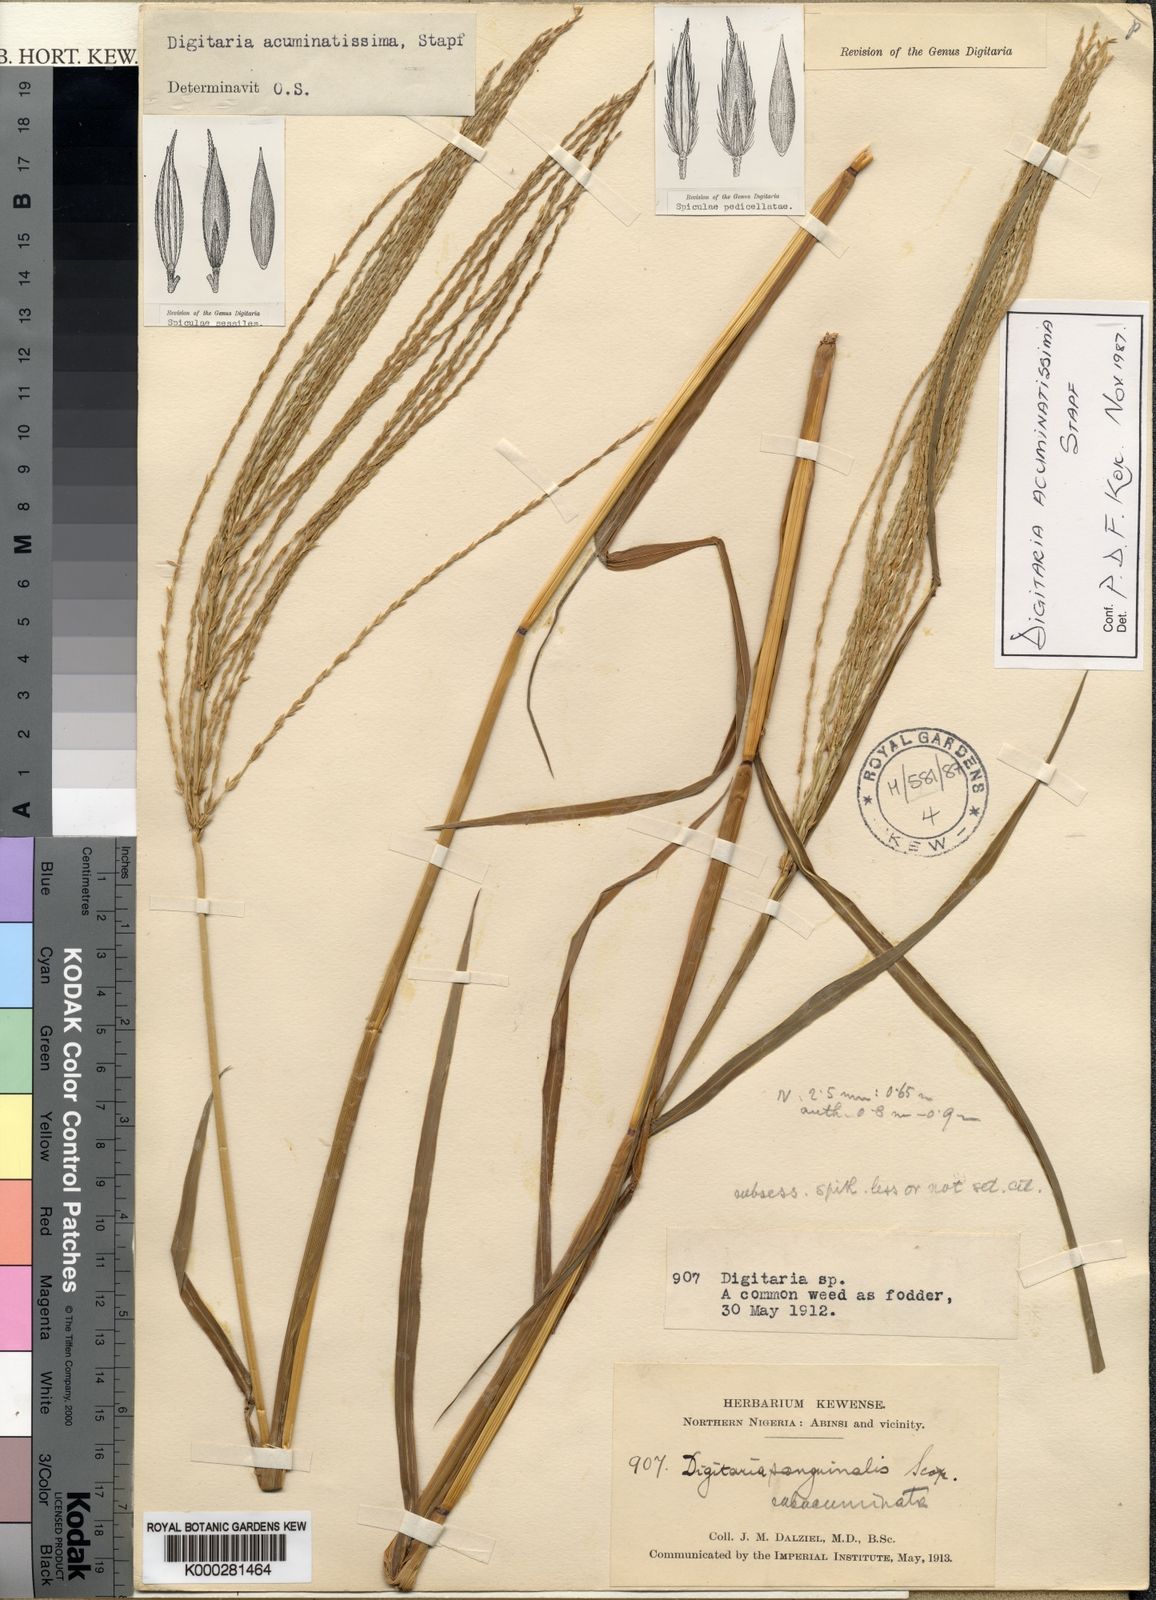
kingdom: Plantae
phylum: Tracheophyta
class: Liliopsida
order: Poales
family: Poaceae
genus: Digitaria
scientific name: Digitaria acuminatissima
